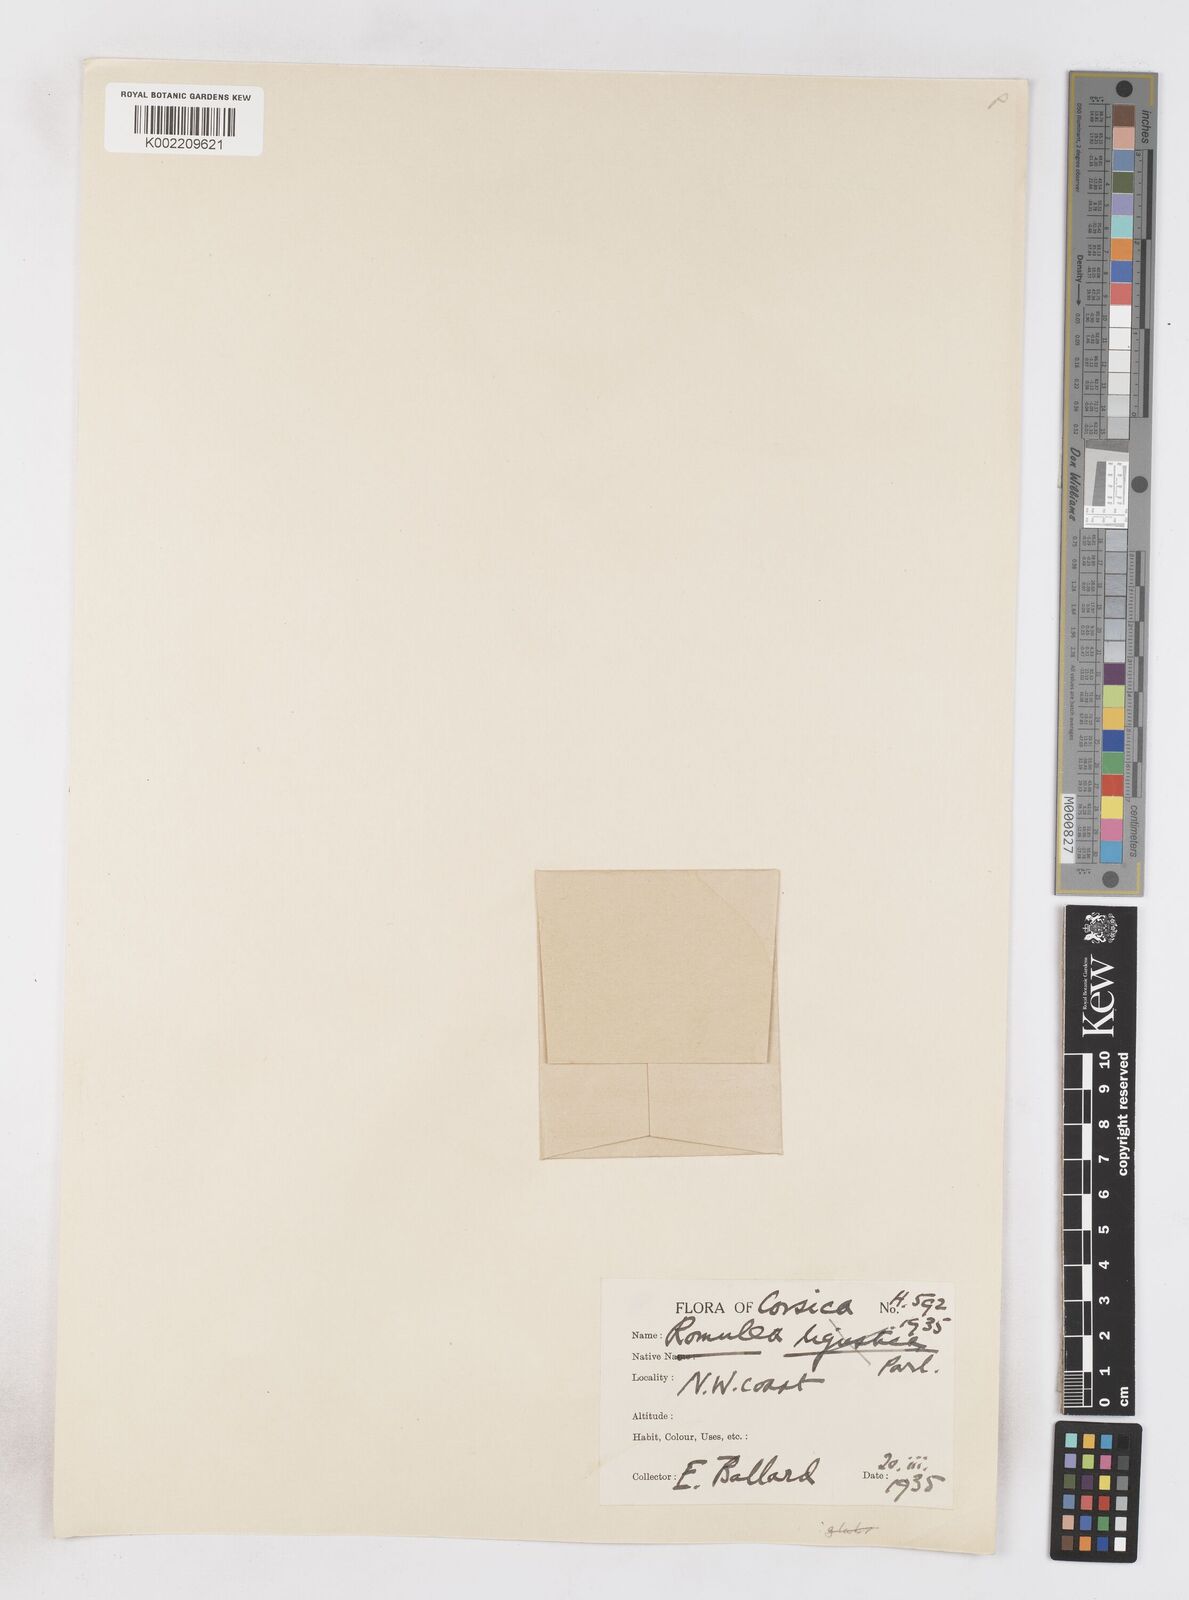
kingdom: Plantae
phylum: Tracheophyta
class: Liliopsida
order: Asparagales
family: Iridaceae
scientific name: Iridaceae
